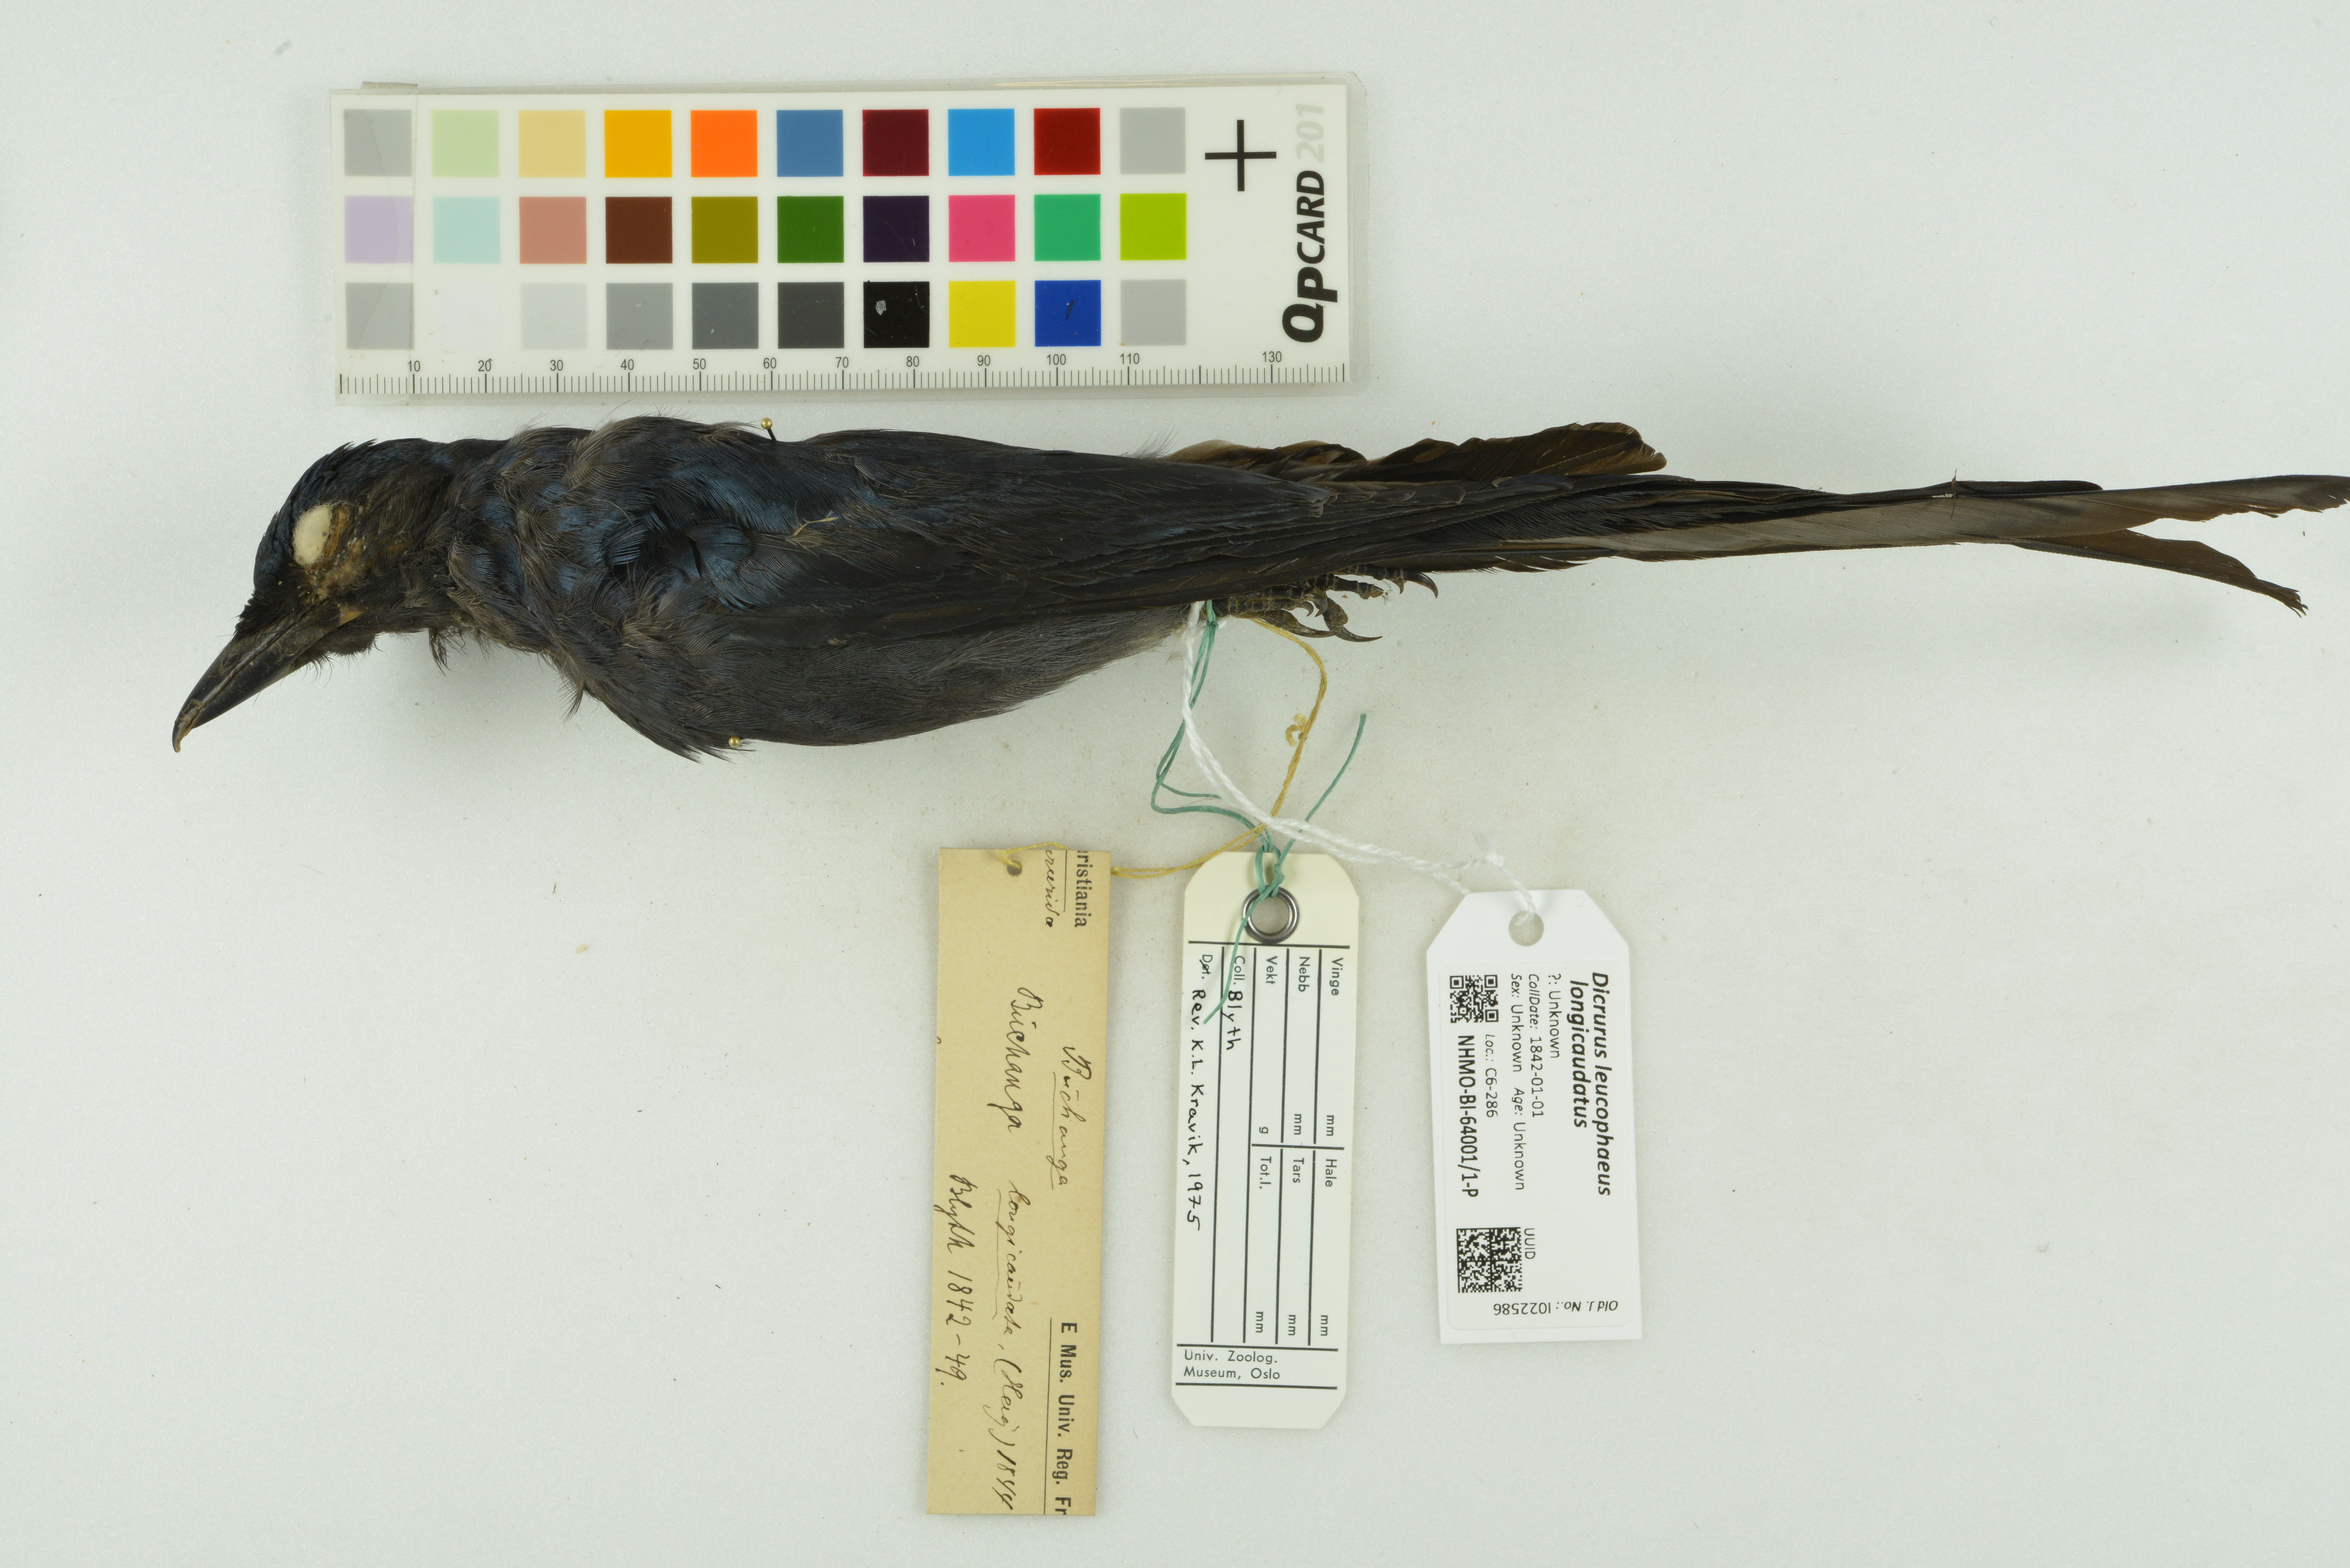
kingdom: Animalia
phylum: Chordata
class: Aves
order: Passeriformes
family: Dicruridae
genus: Dicrurus
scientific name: Dicrurus leucophaeus
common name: Ashy drongo
